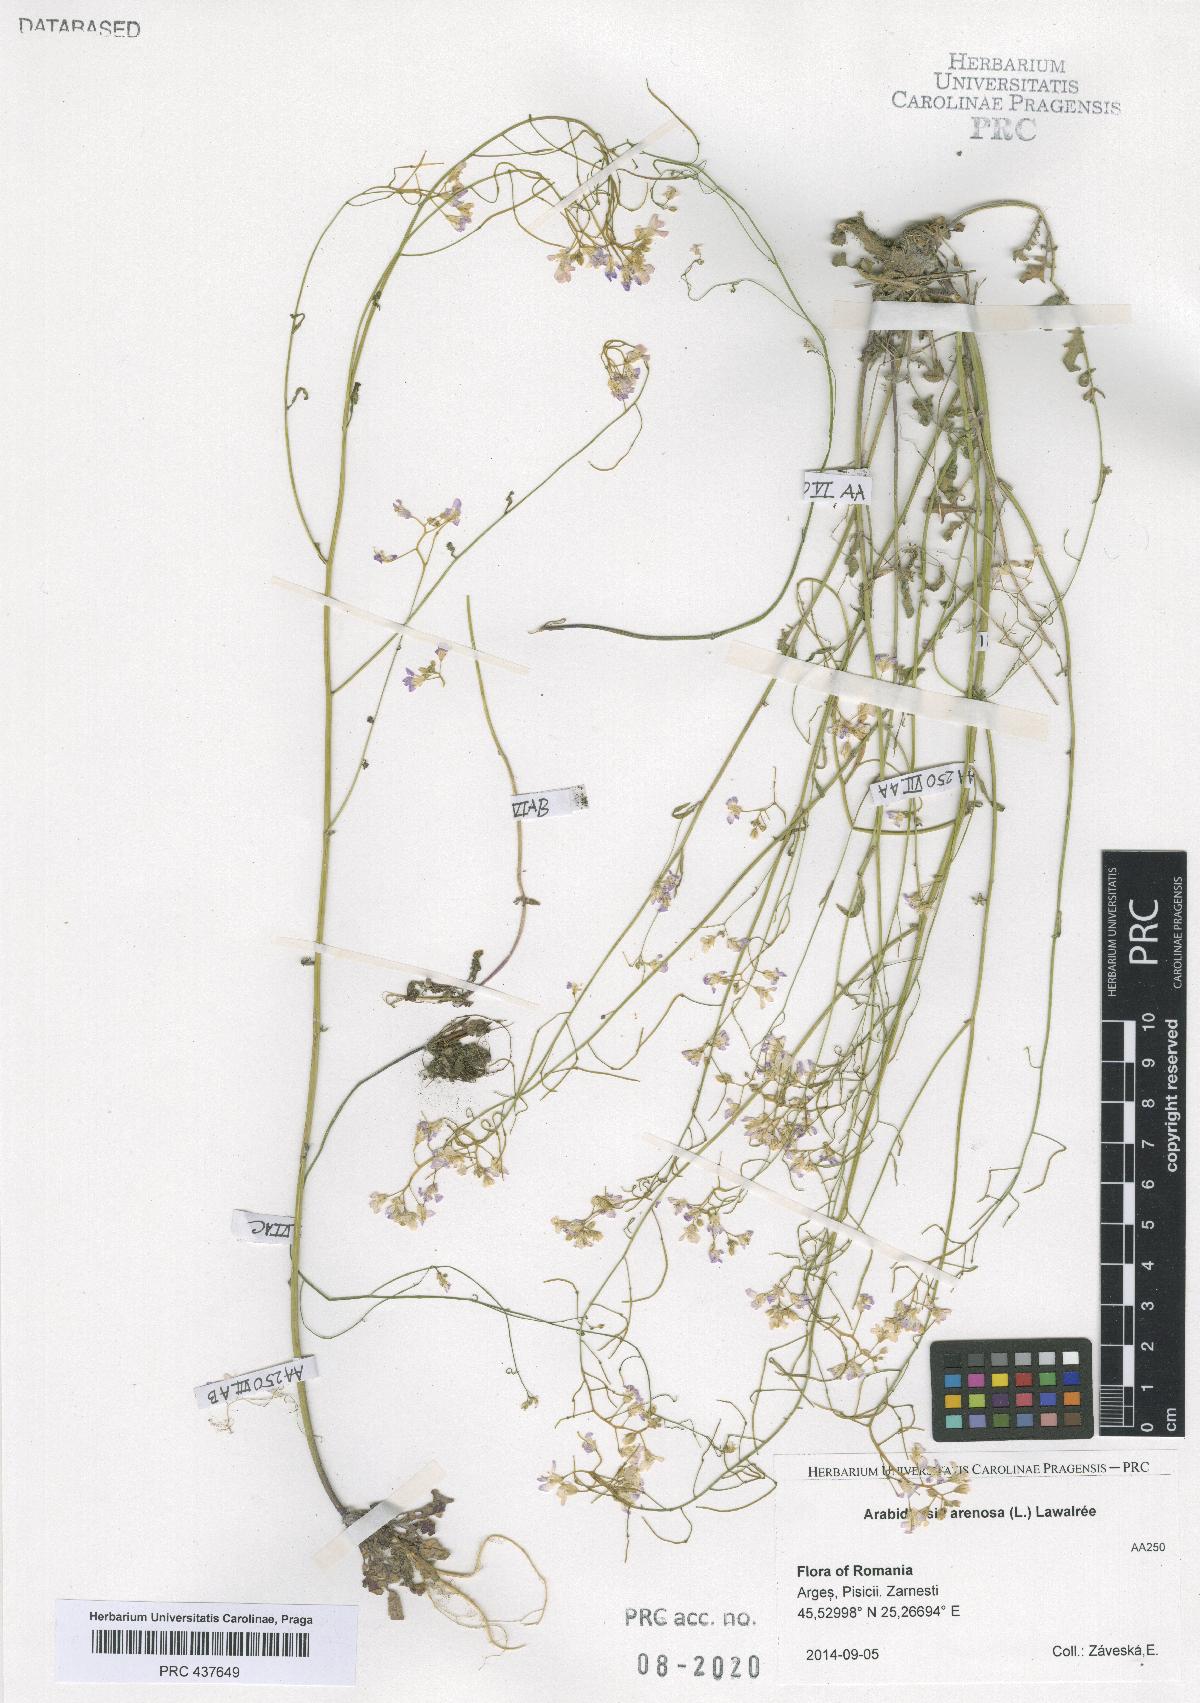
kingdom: Plantae
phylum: Tracheophyta
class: Magnoliopsida
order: Brassicales
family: Brassicaceae
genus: Arabidopsis
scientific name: Arabidopsis arenosa
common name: Sand rock-cress
